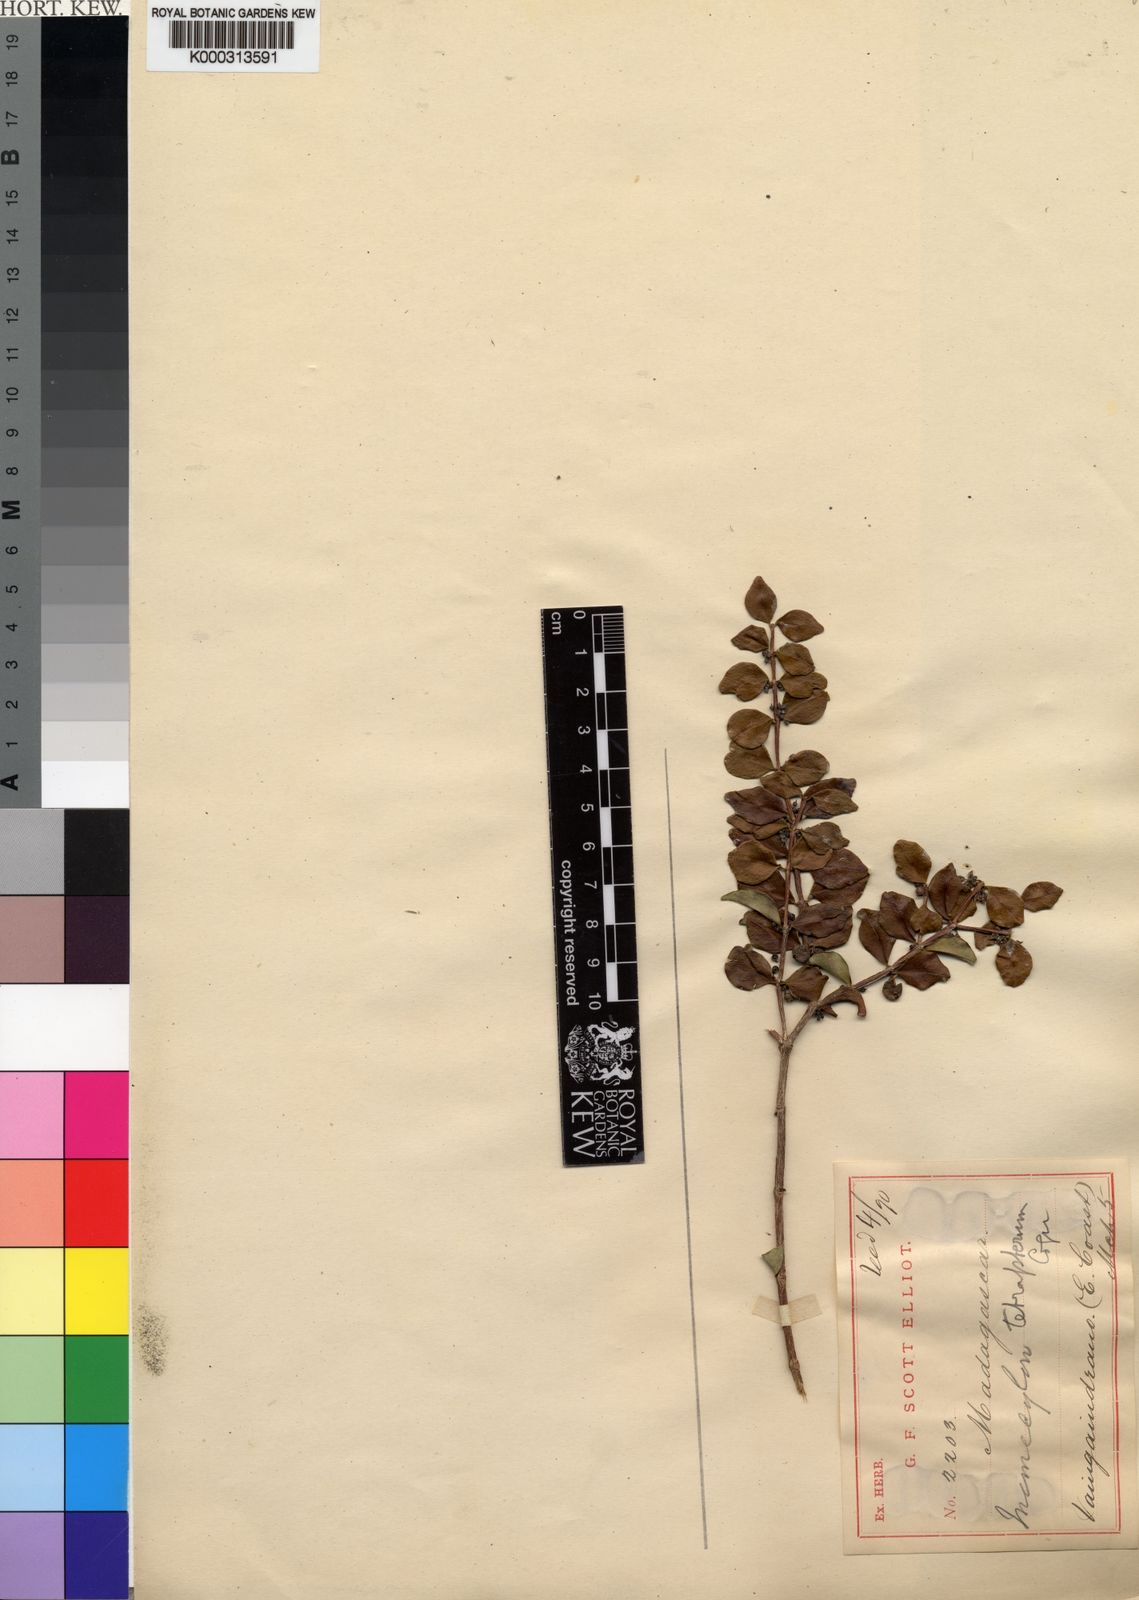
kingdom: Plantae
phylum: Tracheophyta
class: Magnoliopsida
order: Myrtales
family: Melastomataceae
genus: Memecylon
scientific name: Memecylon
